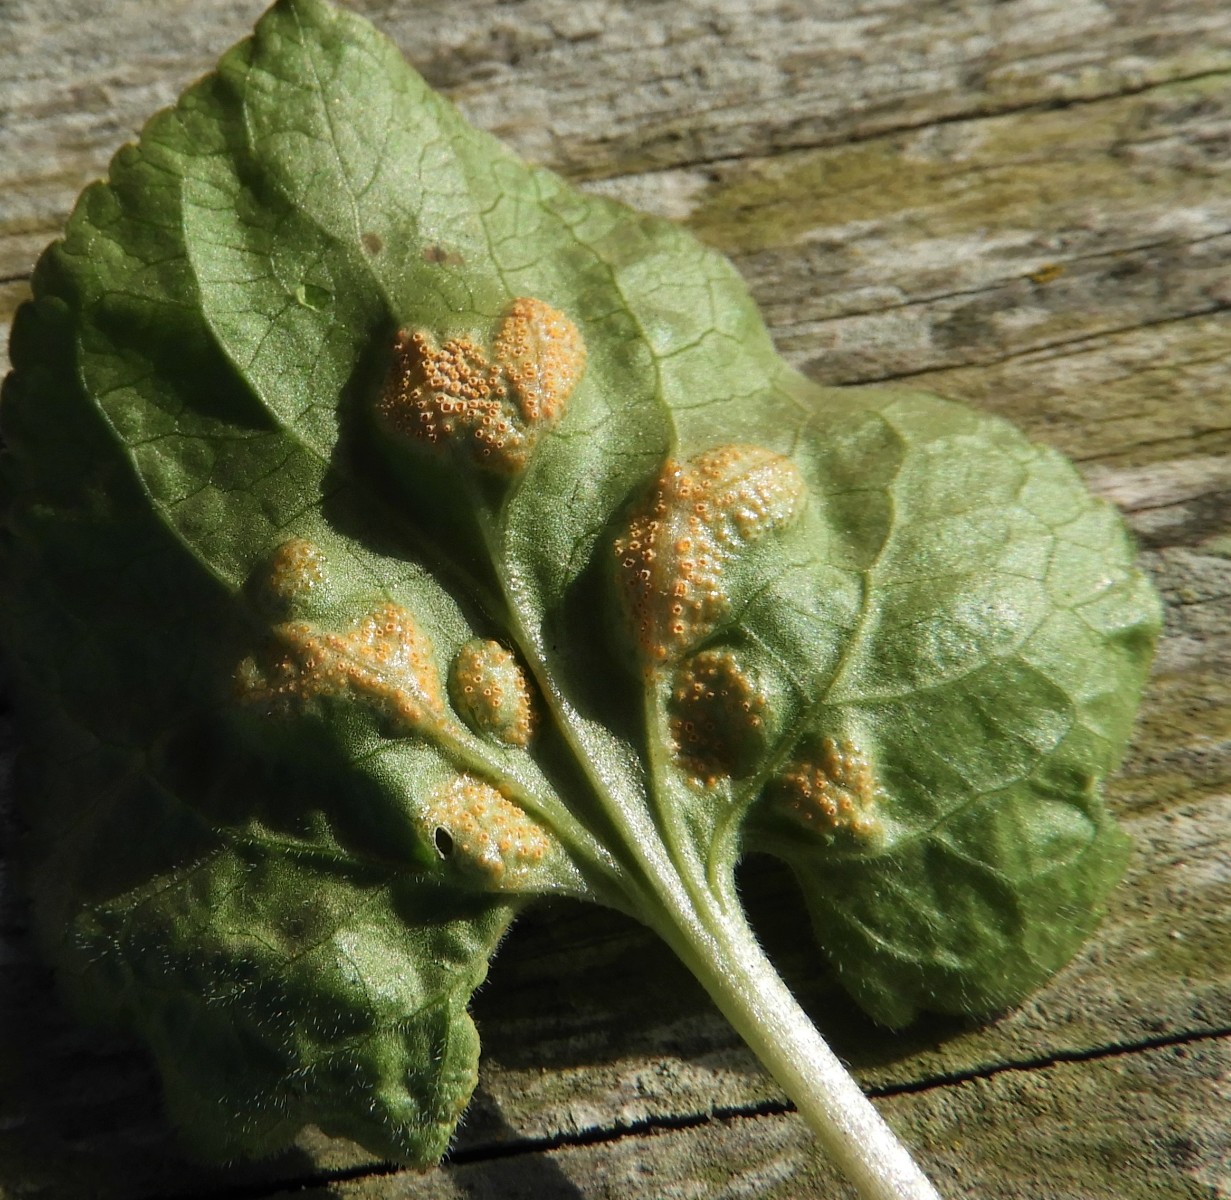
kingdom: Fungi
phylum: Basidiomycota
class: Pucciniomycetes
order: Pucciniales
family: Pucciniaceae
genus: Puccinia
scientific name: Puccinia violae
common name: viol-tvecellerust
